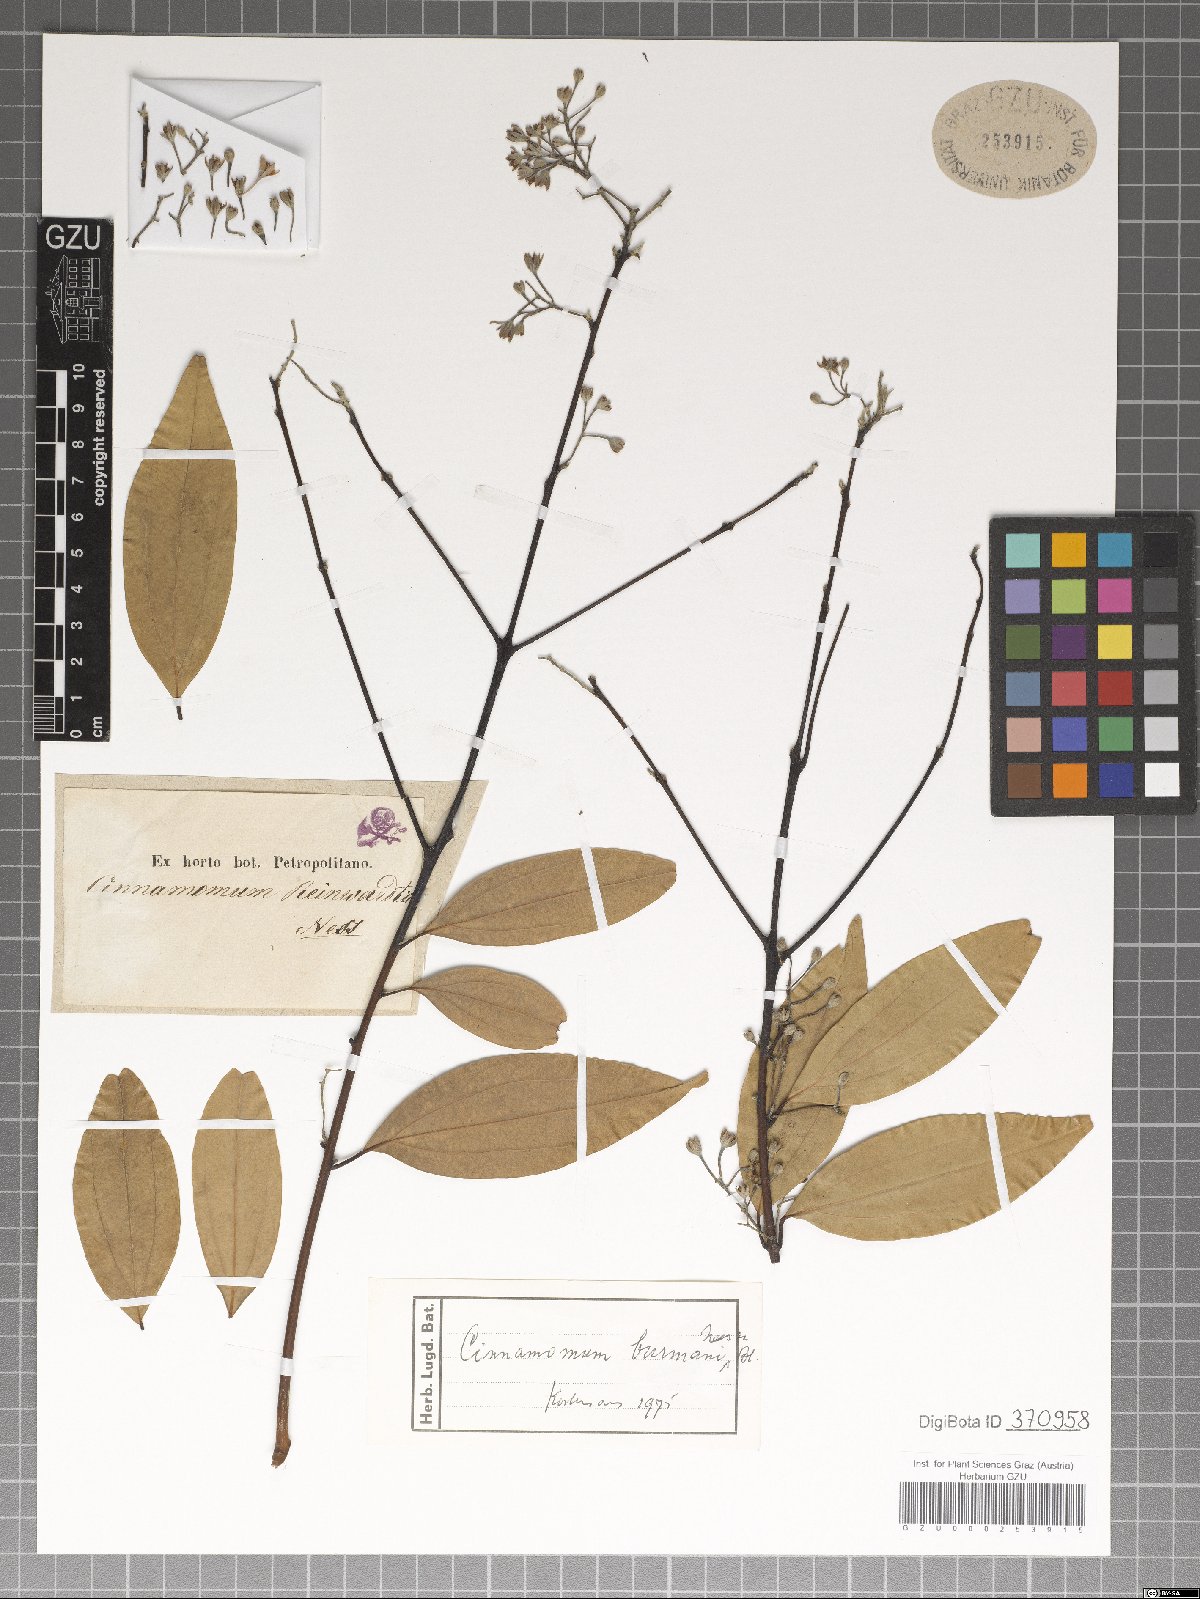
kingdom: Plantae
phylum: Tracheophyta
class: Magnoliopsida
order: Laurales
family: Lauraceae
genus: Cinnamomum
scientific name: Cinnamomum burmanni
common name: Padang cassia
